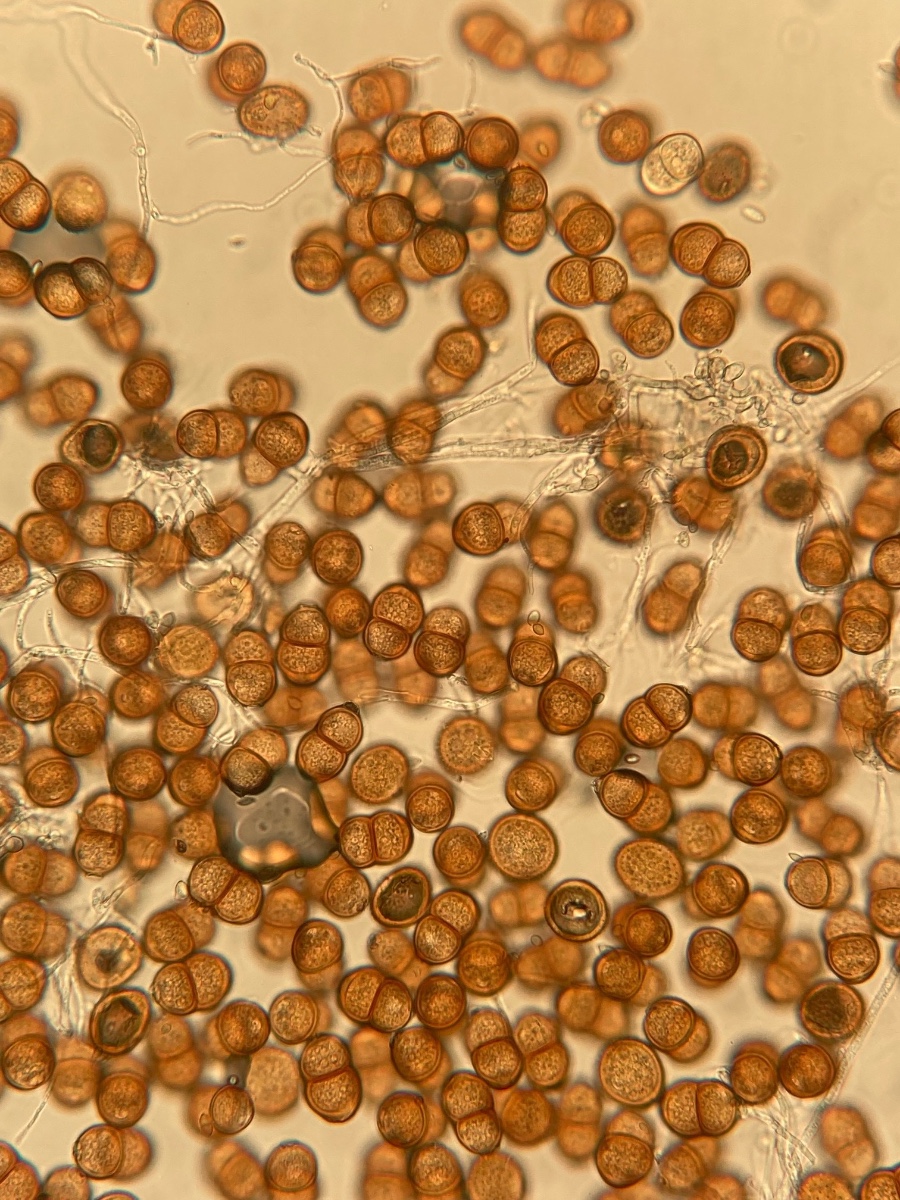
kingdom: Fungi
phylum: Basidiomycota
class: Pucciniomycetes
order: Pucciniales
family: Pucciniaceae
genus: Puccinia
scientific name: Puccinia pulverulenta
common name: dueurt-tvecellerust
